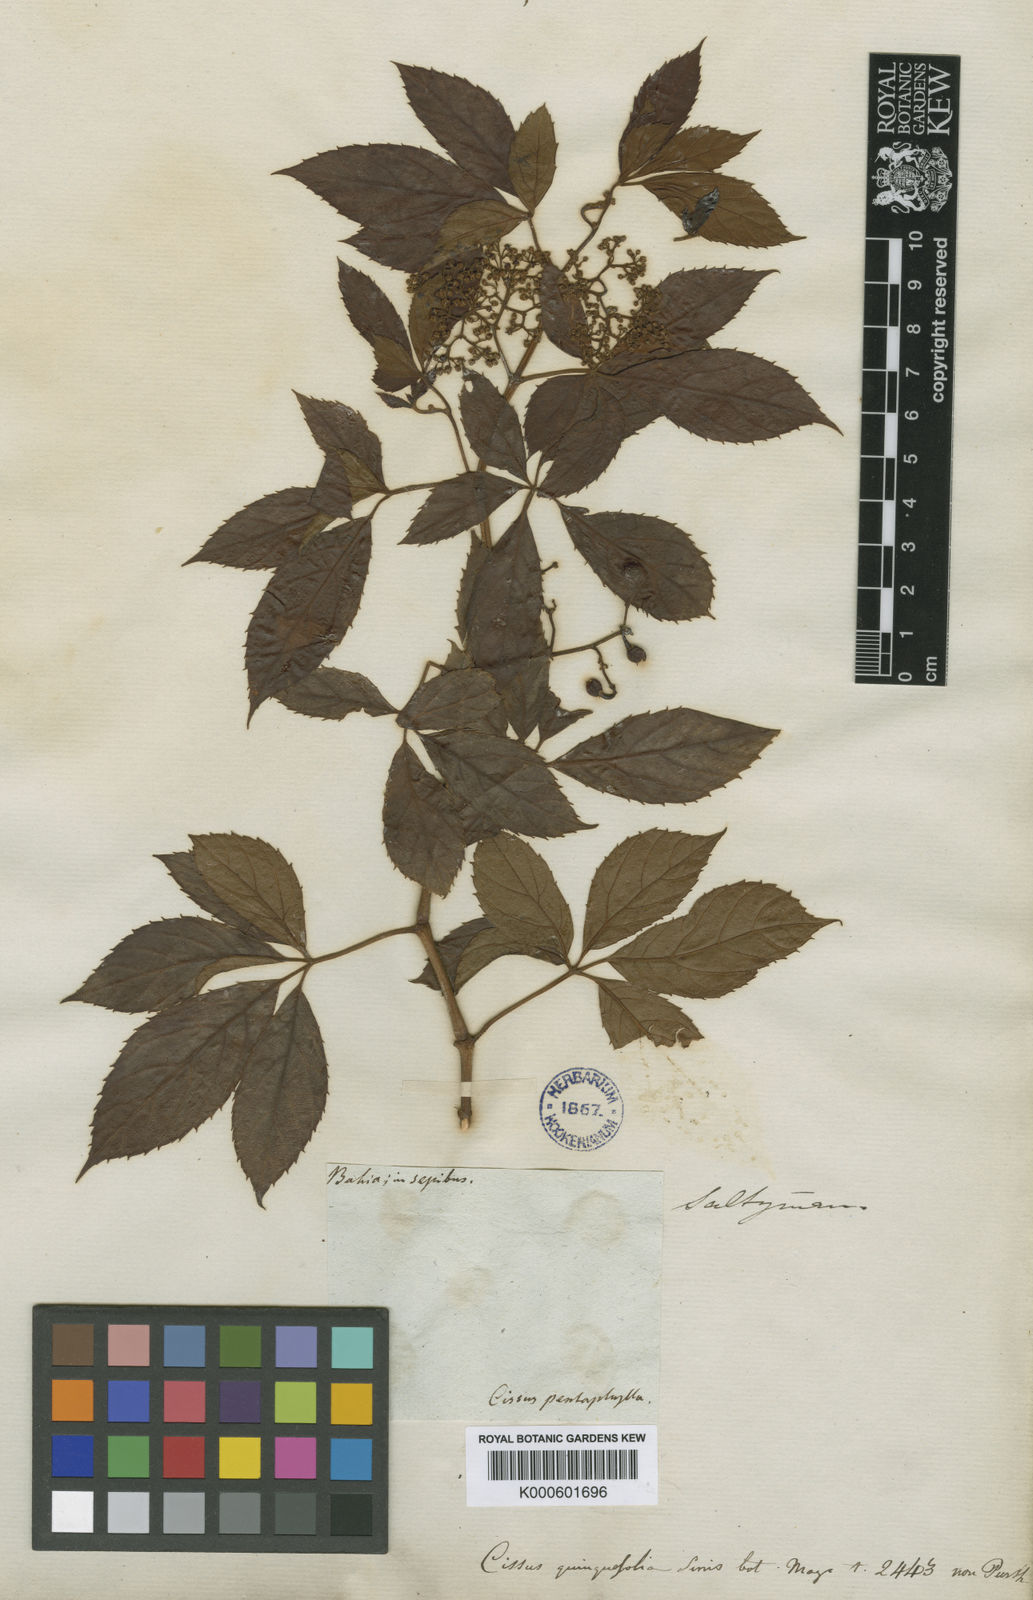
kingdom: Plantae
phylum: Tracheophyta
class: Magnoliopsida
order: Vitales
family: Vitaceae
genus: Clematicissus
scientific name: Clematicissus simsiana
